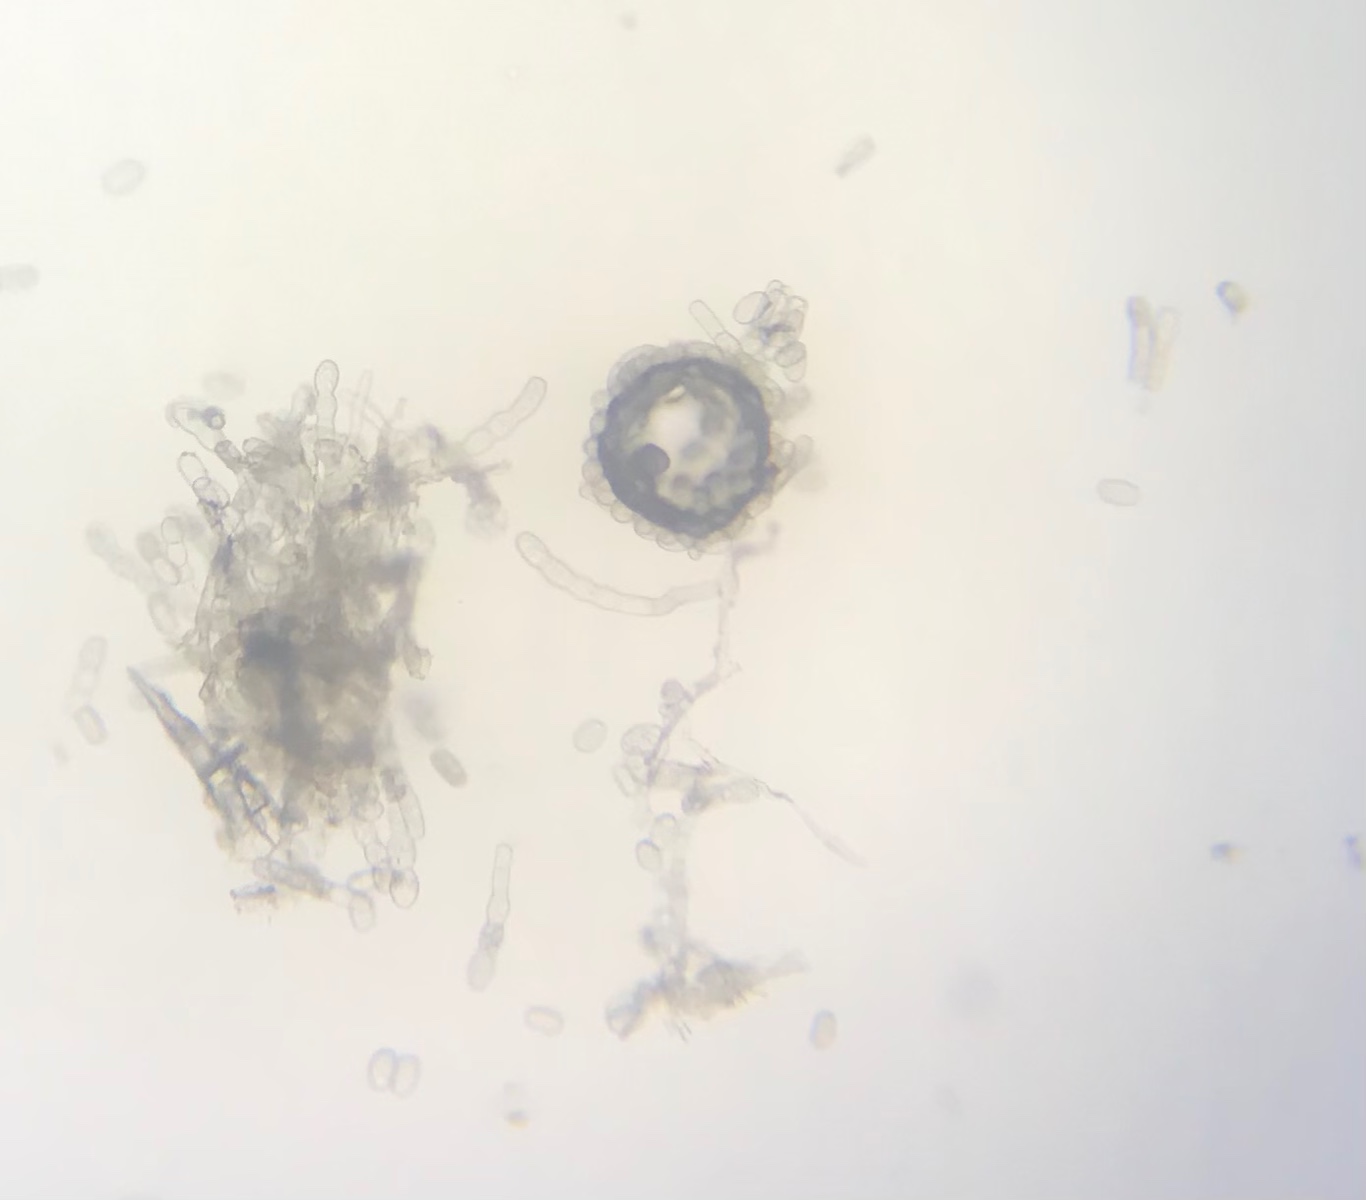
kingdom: Fungi
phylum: Ascomycota
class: Leotiomycetes
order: Helotiales
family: Erysiphaceae
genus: Golovinomyces
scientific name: Golovinomyces orontii
